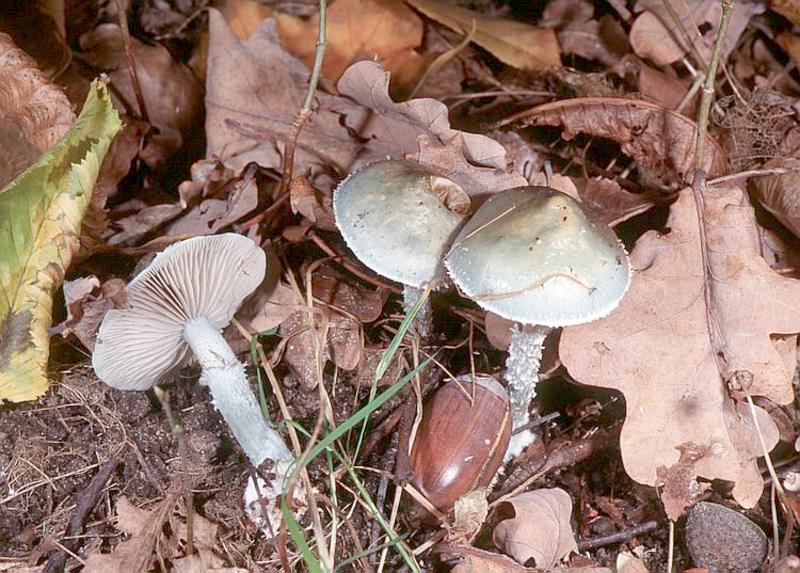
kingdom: Fungi
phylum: Basidiomycota
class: Agaricomycetes
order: Agaricales
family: Strophariaceae
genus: Stropharia
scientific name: Stropharia aeruginosa
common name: Verdigris roundhead
